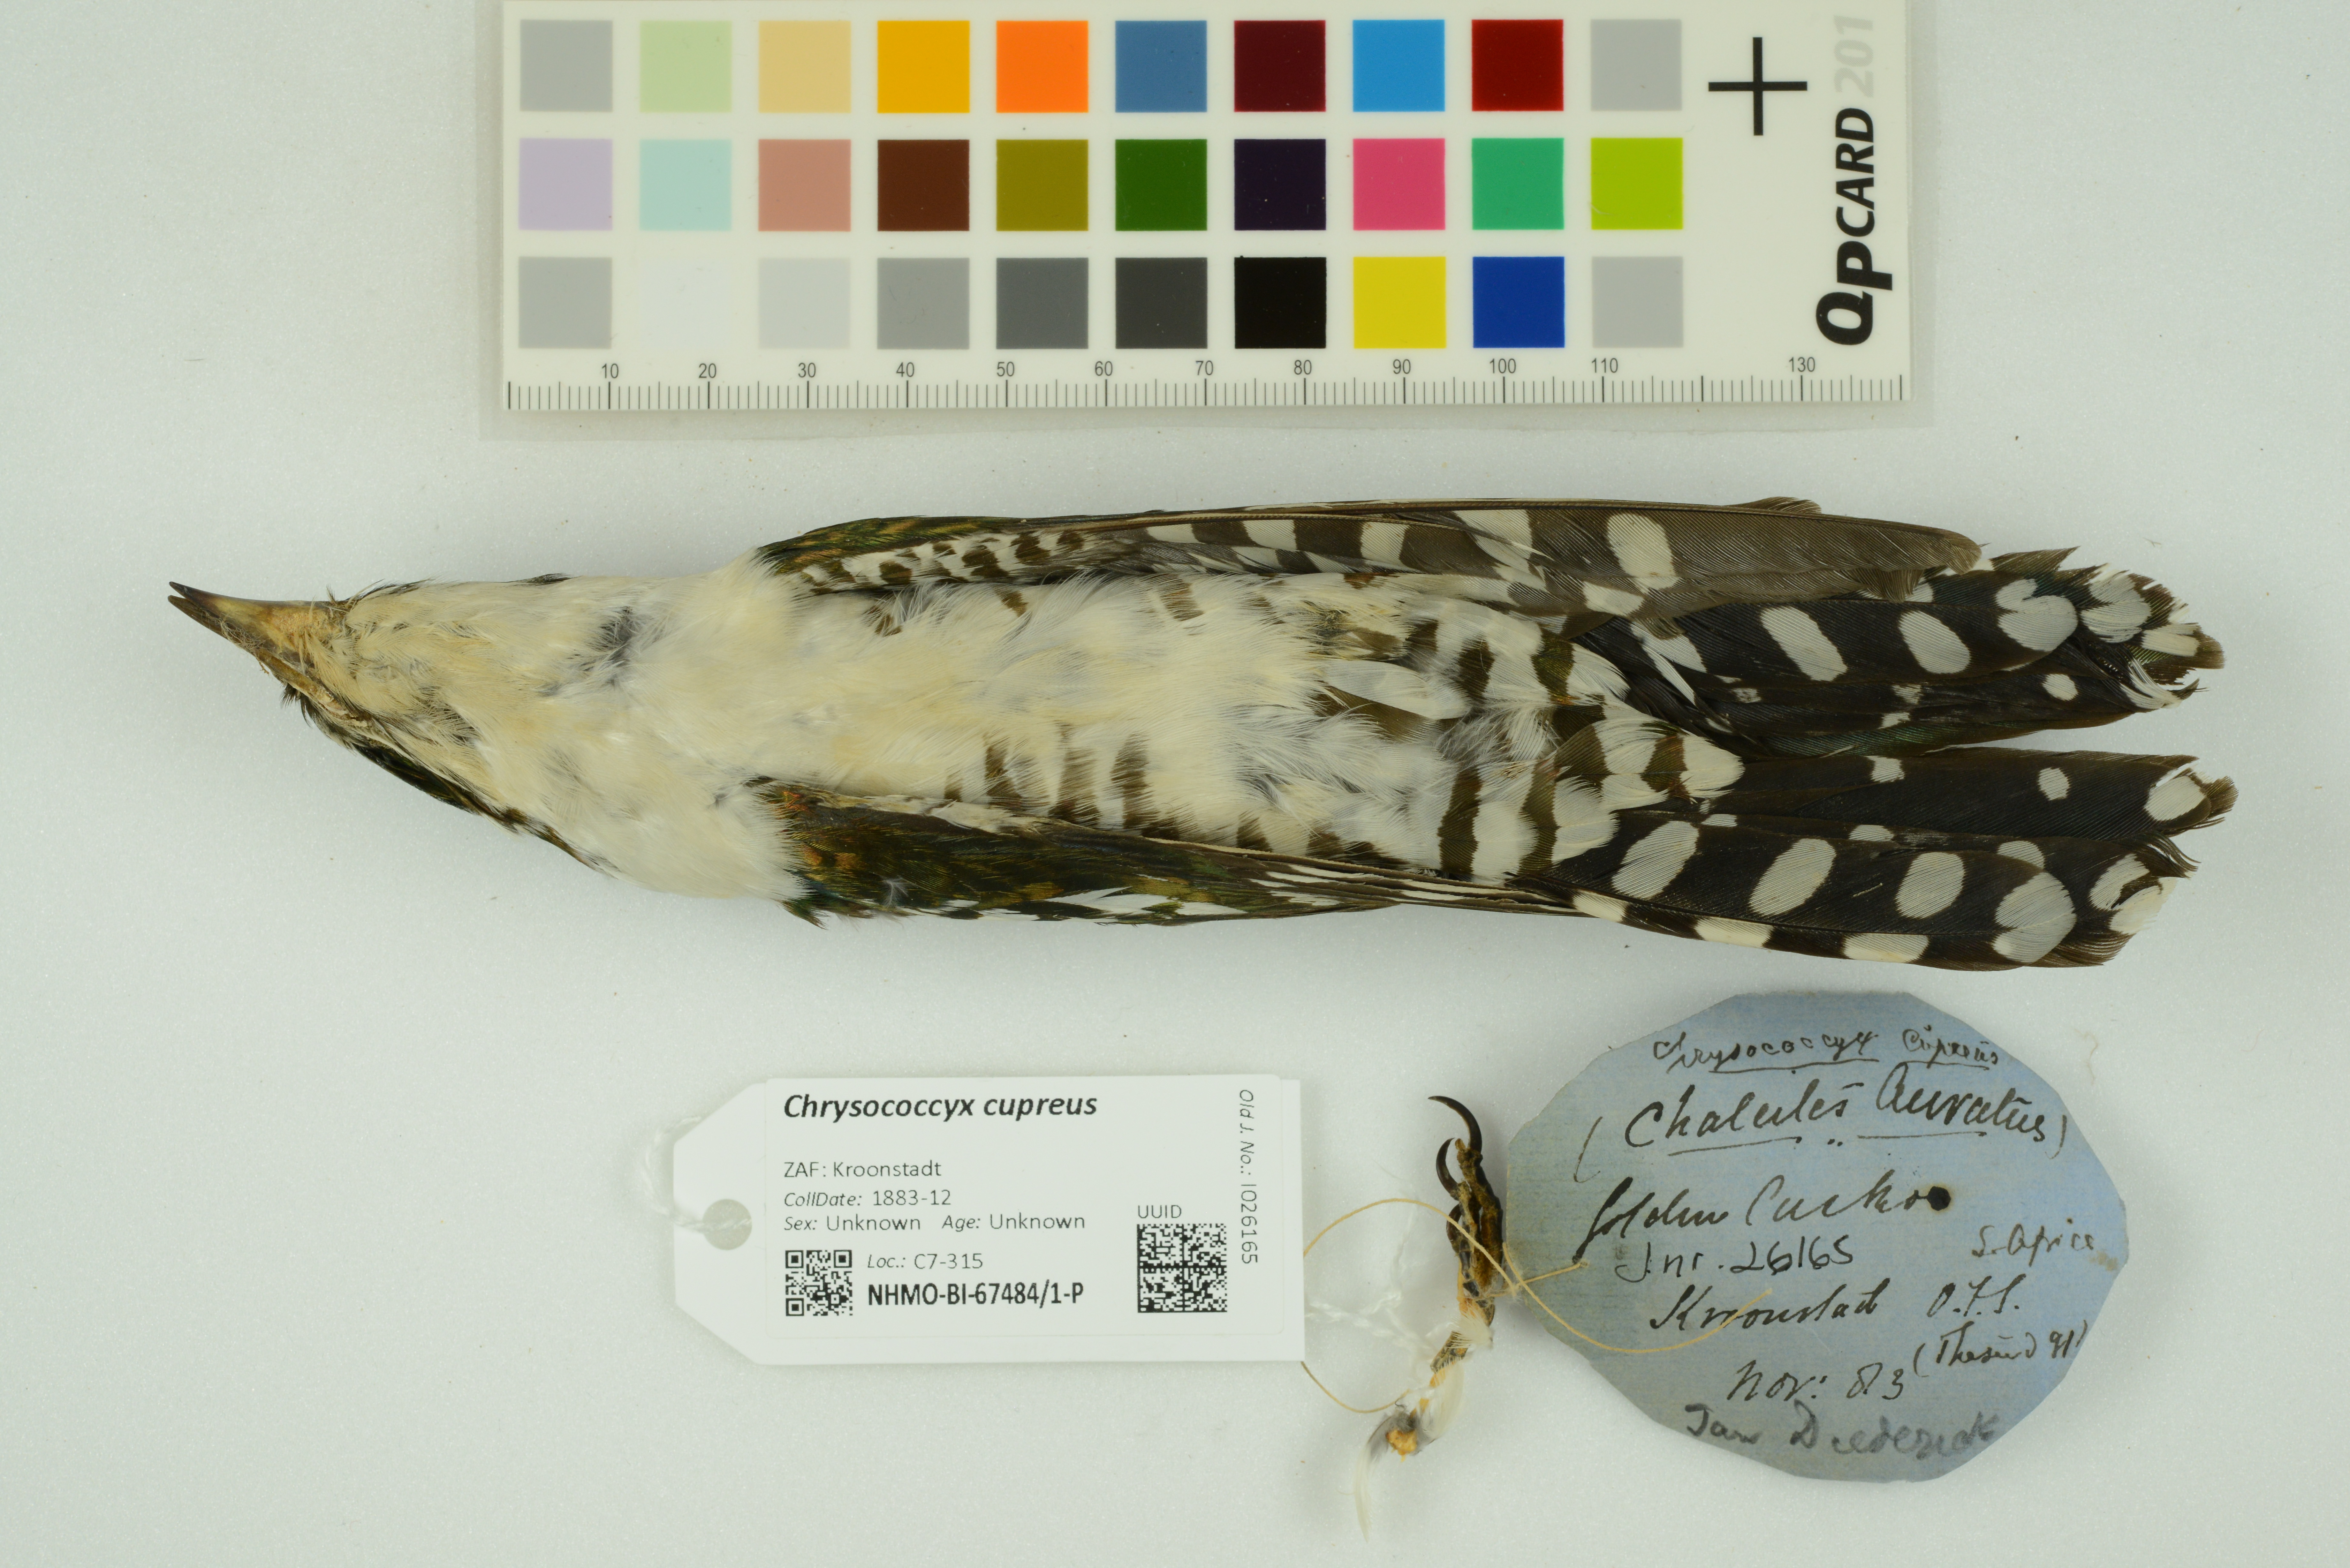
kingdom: Animalia
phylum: Chordata
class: Aves
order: Cuculiformes
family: Cuculidae
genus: Chrysococcyx
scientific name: Chrysococcyx cupreus
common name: African emerald cuckoo
